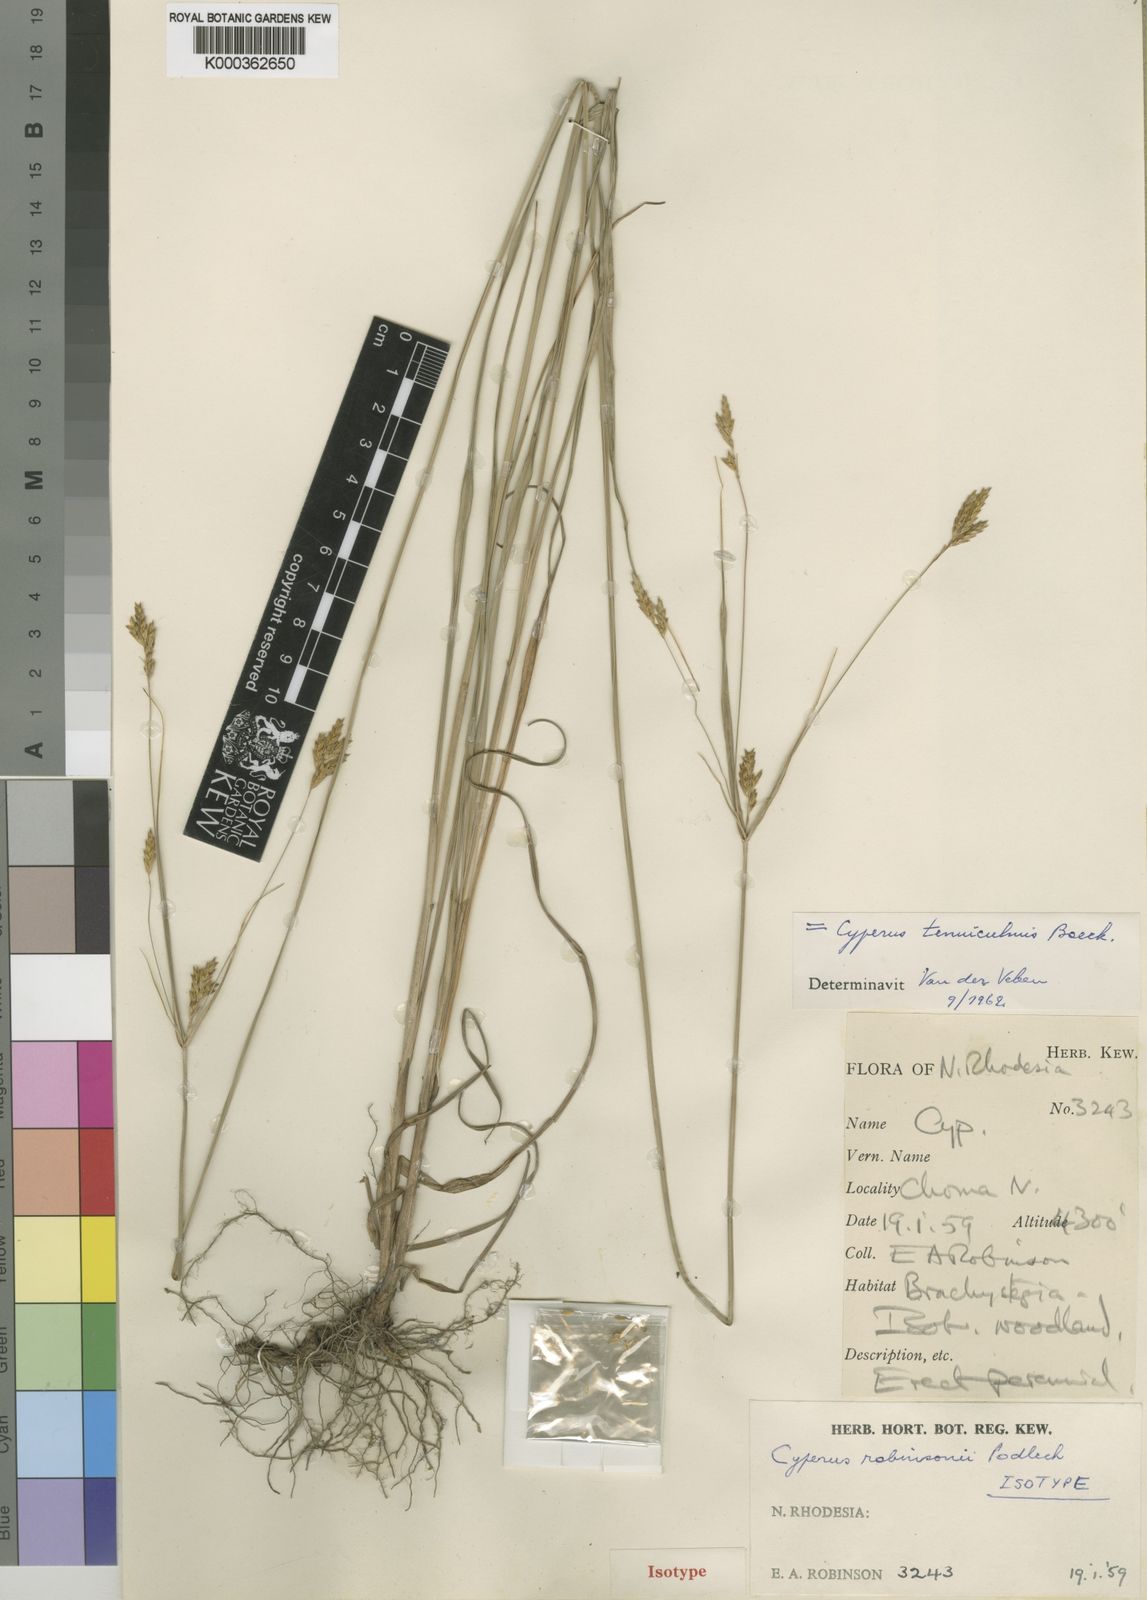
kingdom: Plantae
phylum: Tracheophyta
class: Liliopsida
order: Poales
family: Cyperaceae
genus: Cyperus
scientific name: Cyperus tenuiculmis
